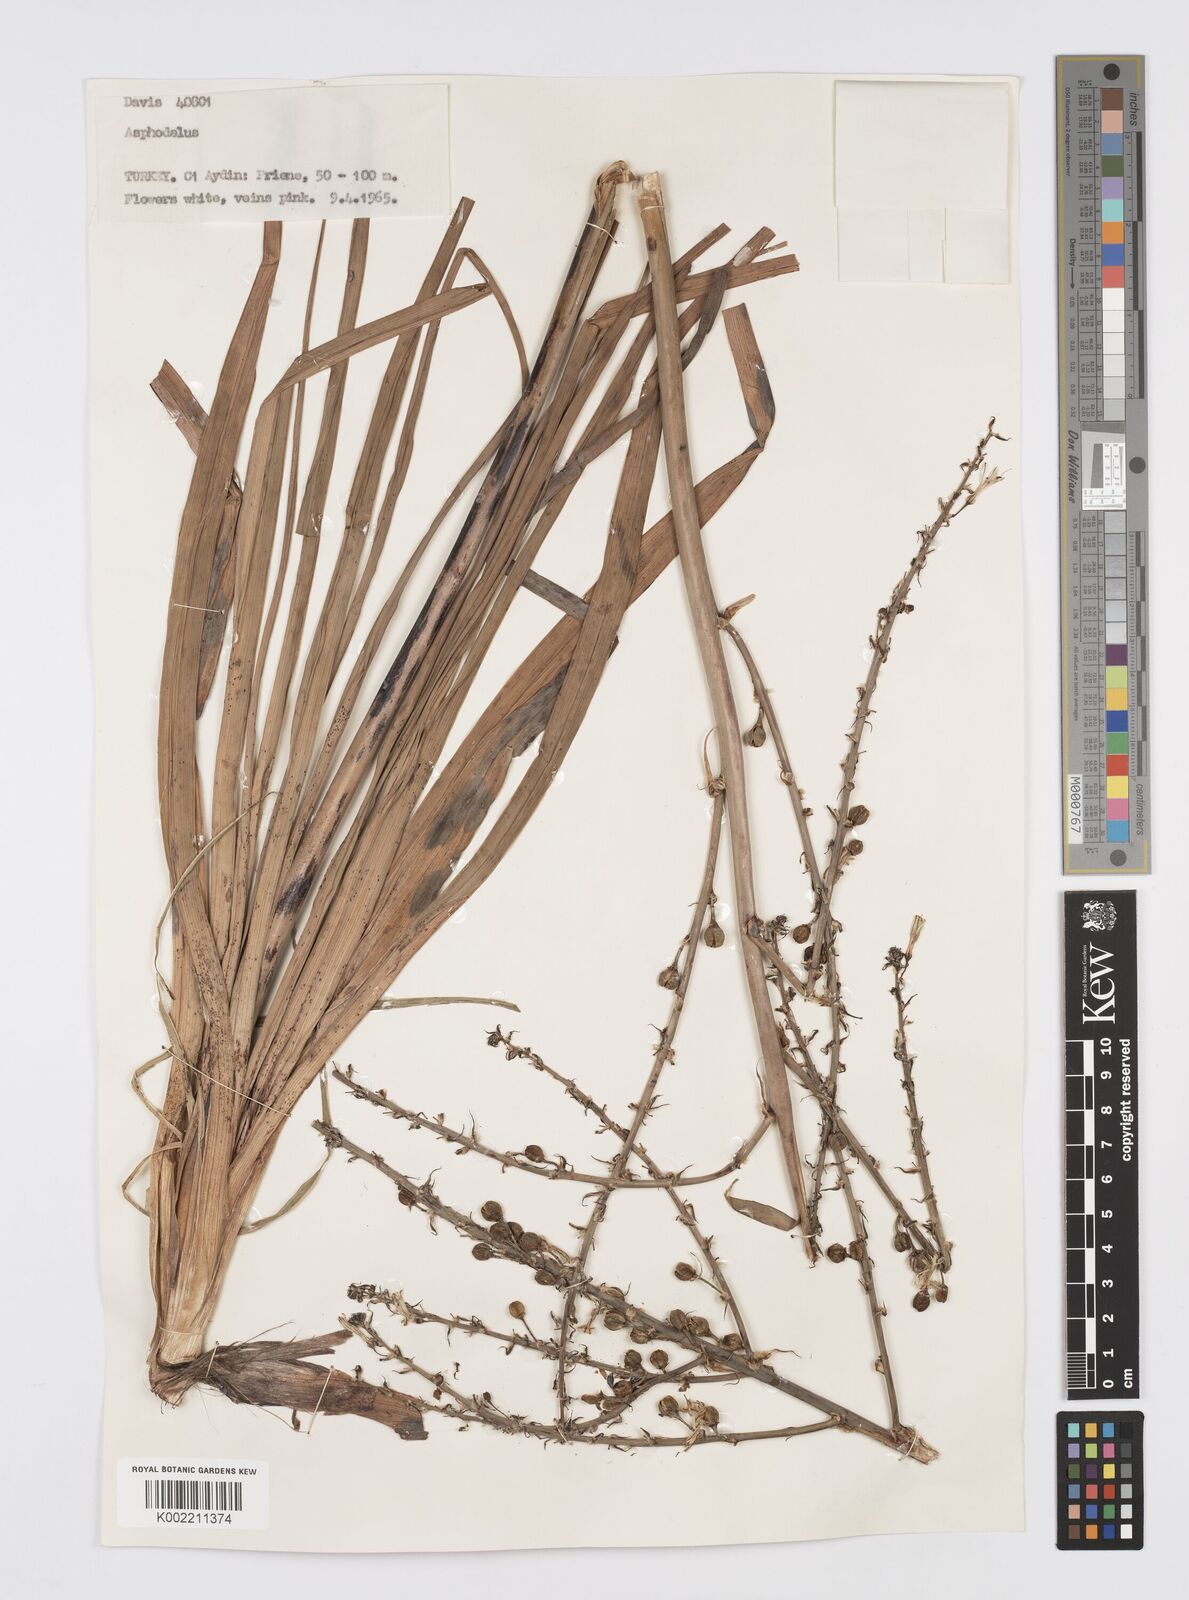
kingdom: Plantae
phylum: Tracheophyta
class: Liliopsida
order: Asparagales
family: Asphodelaceae
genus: Asphodelus
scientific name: Asphodelus
